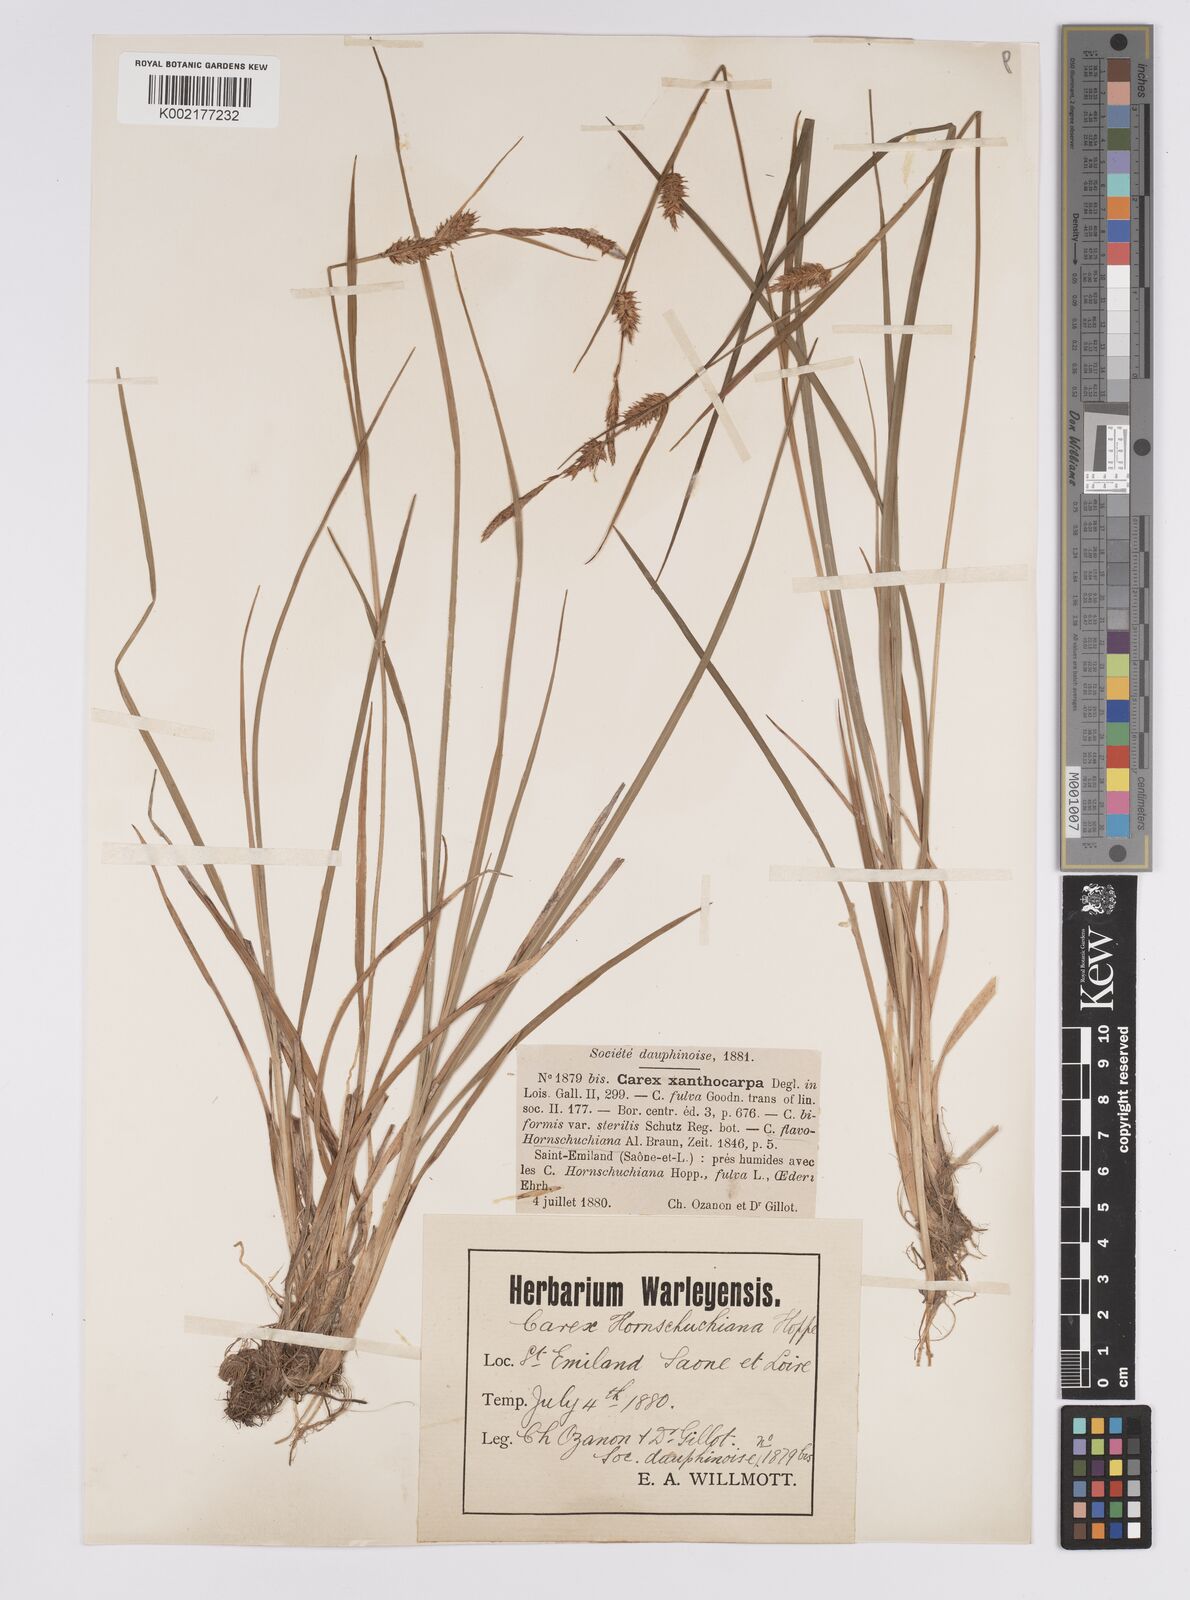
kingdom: Plantae
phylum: Tracheophyta
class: Liliopsida
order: Poales
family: Cyperaceae
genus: Carex
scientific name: Carex hostiana
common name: Tawny sedge
